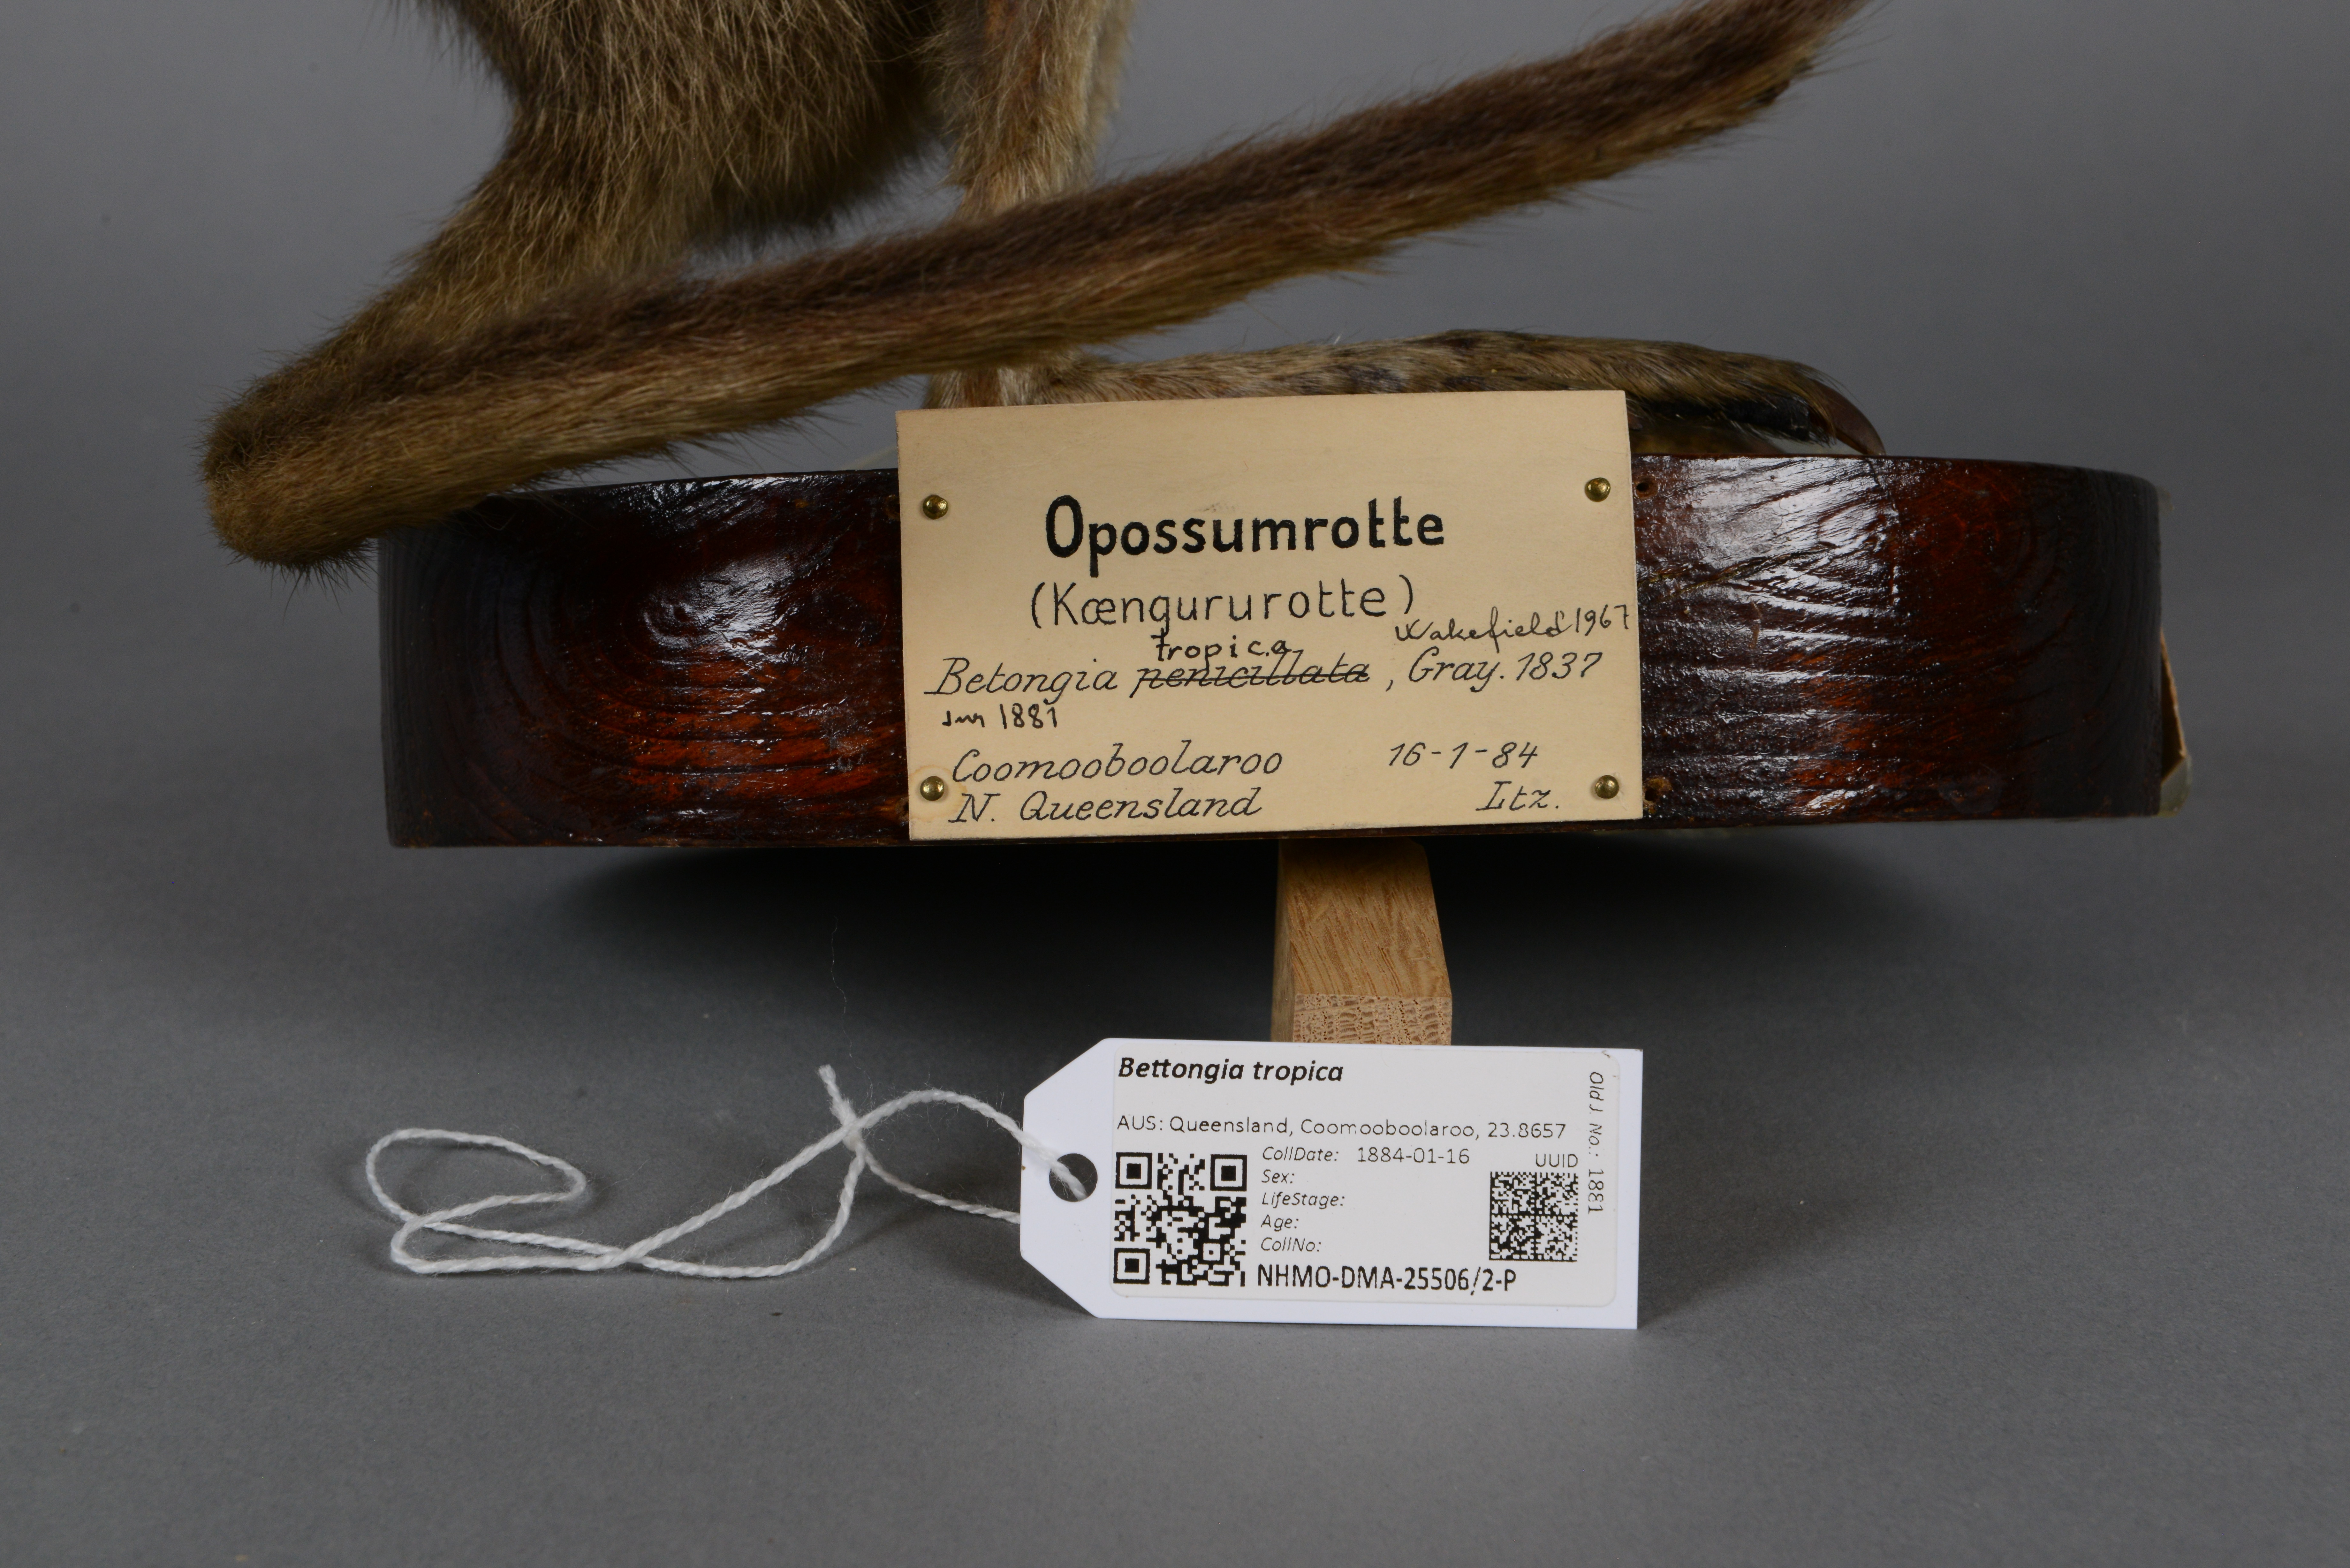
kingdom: Animalia
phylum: Chordata
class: Mammalia
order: Diprotodontia
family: Potoroidae
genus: Bettongia
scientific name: Bettongia tropica
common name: Northern bettong
